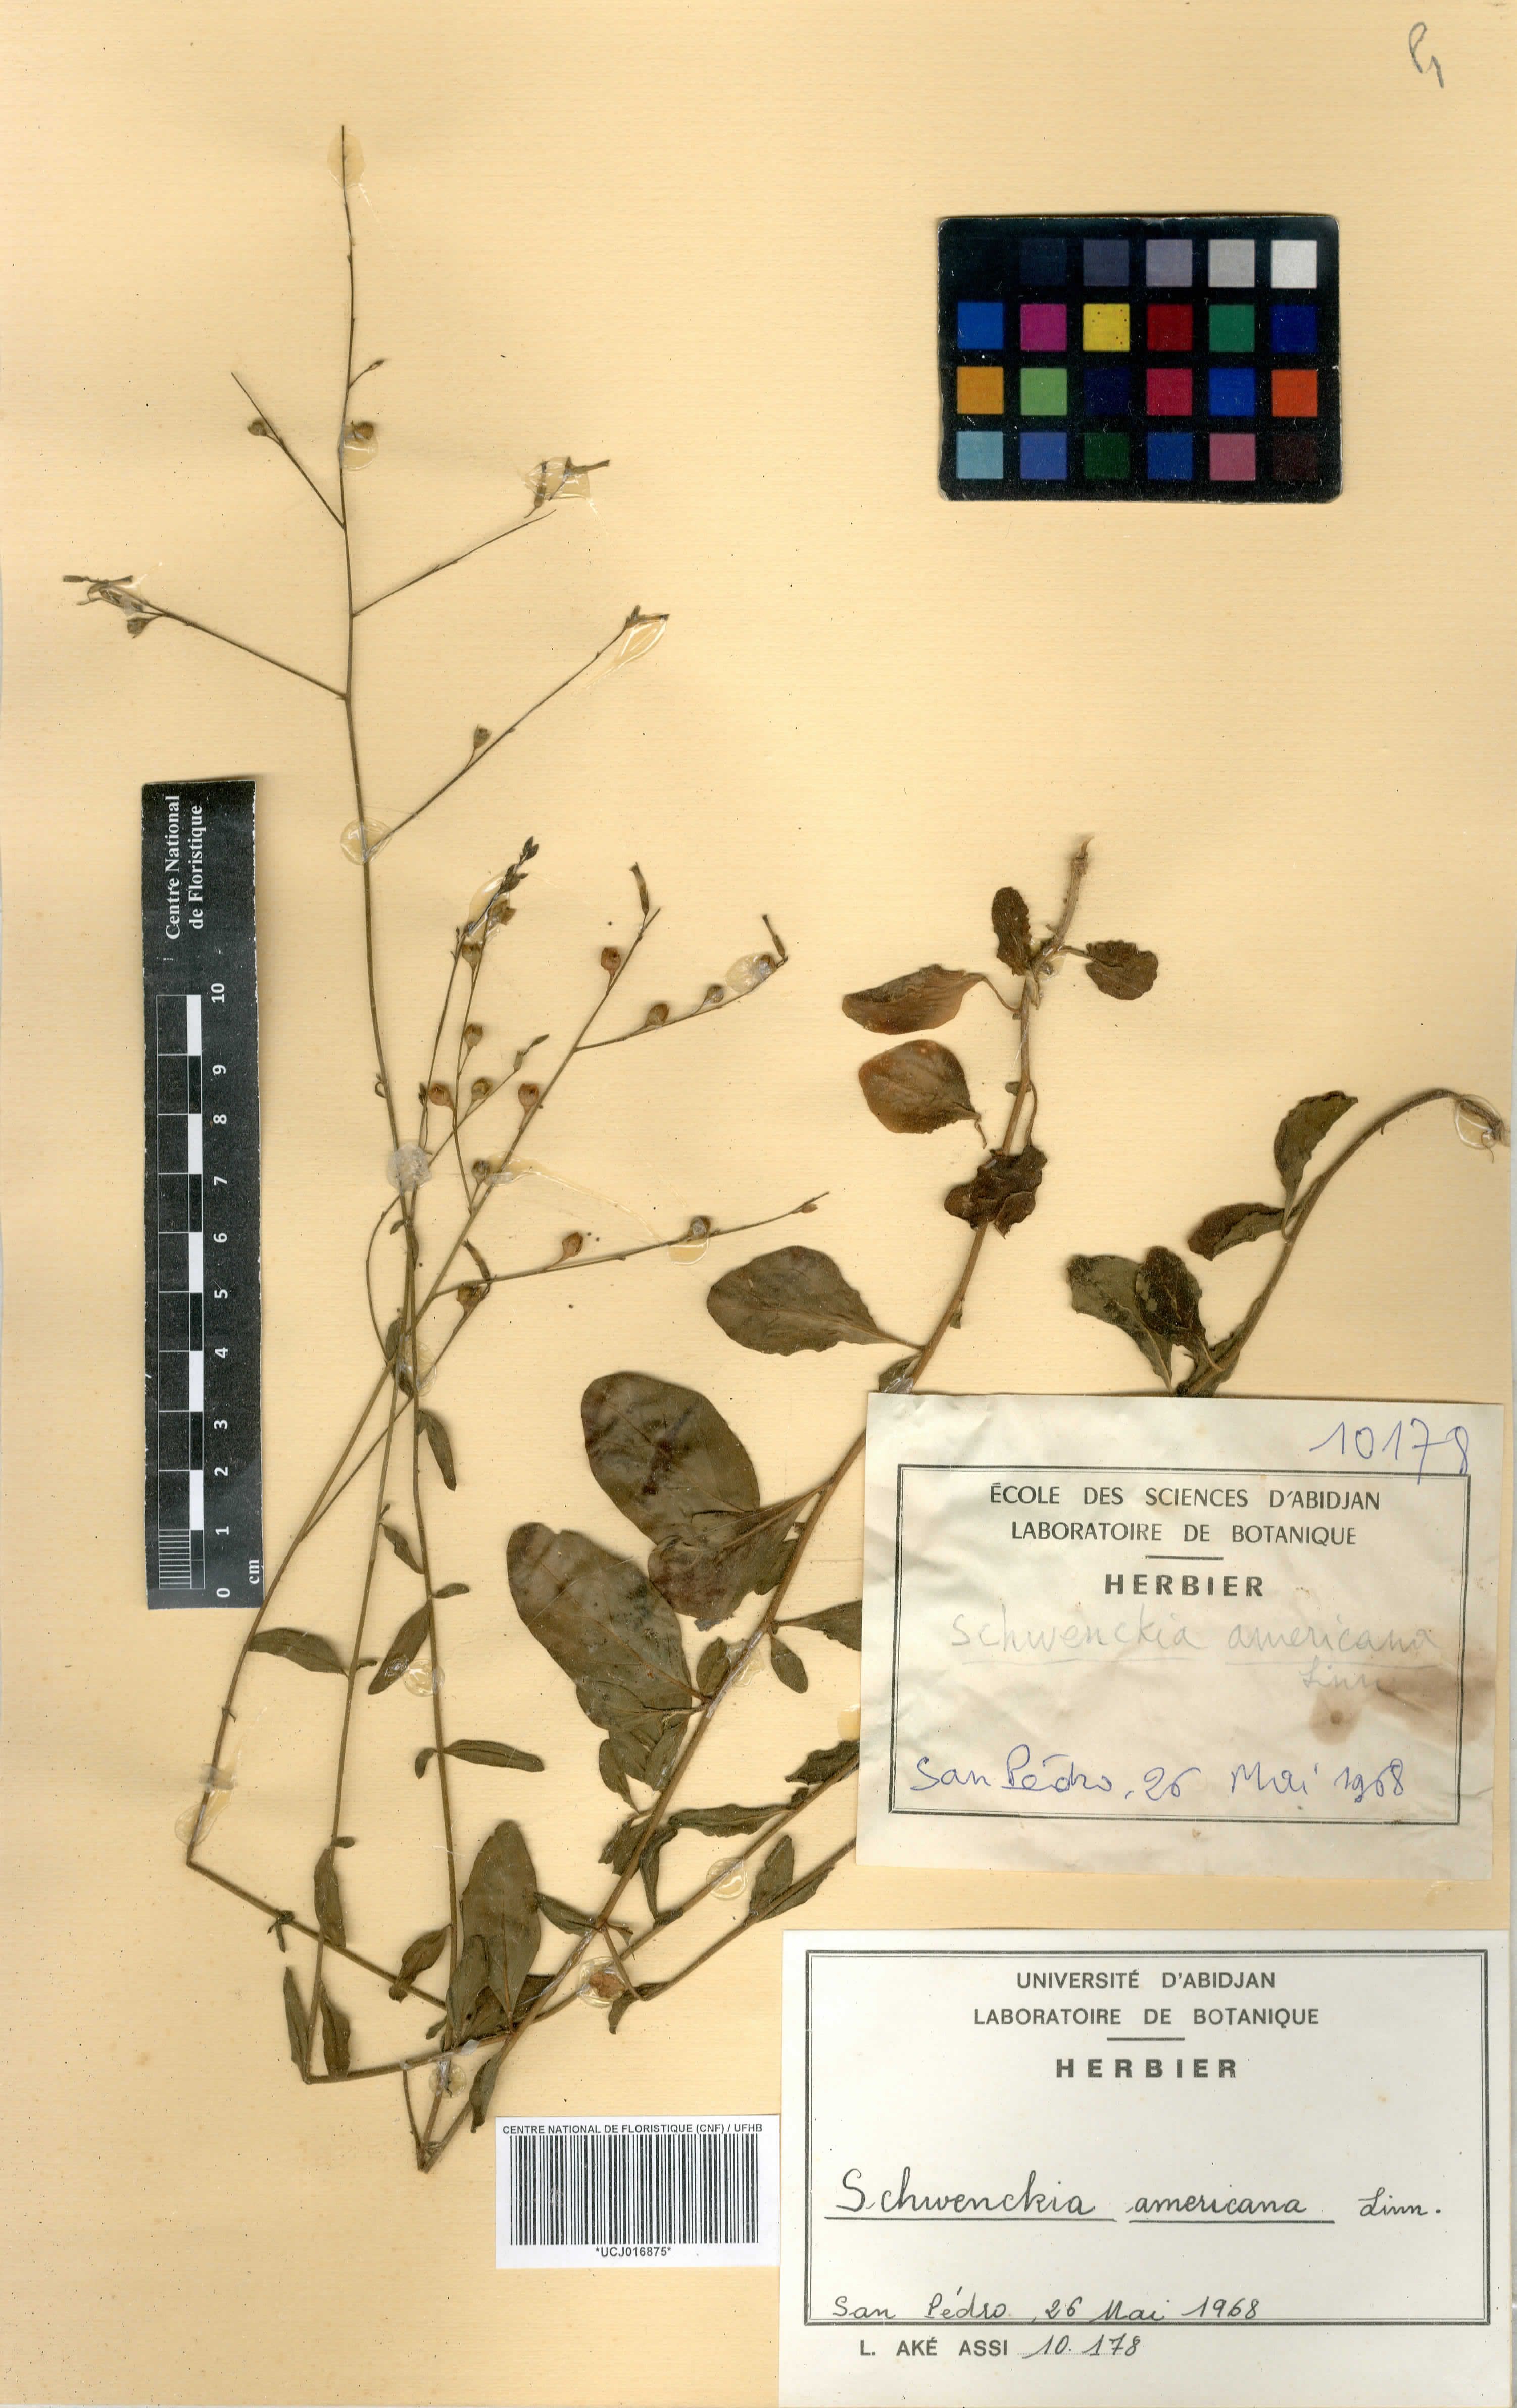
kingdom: Plantae
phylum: Tracheophyta
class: Magnoliopsida
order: Solanales
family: Solanaceae
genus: Schwenckia
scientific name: Schwenckia americana
